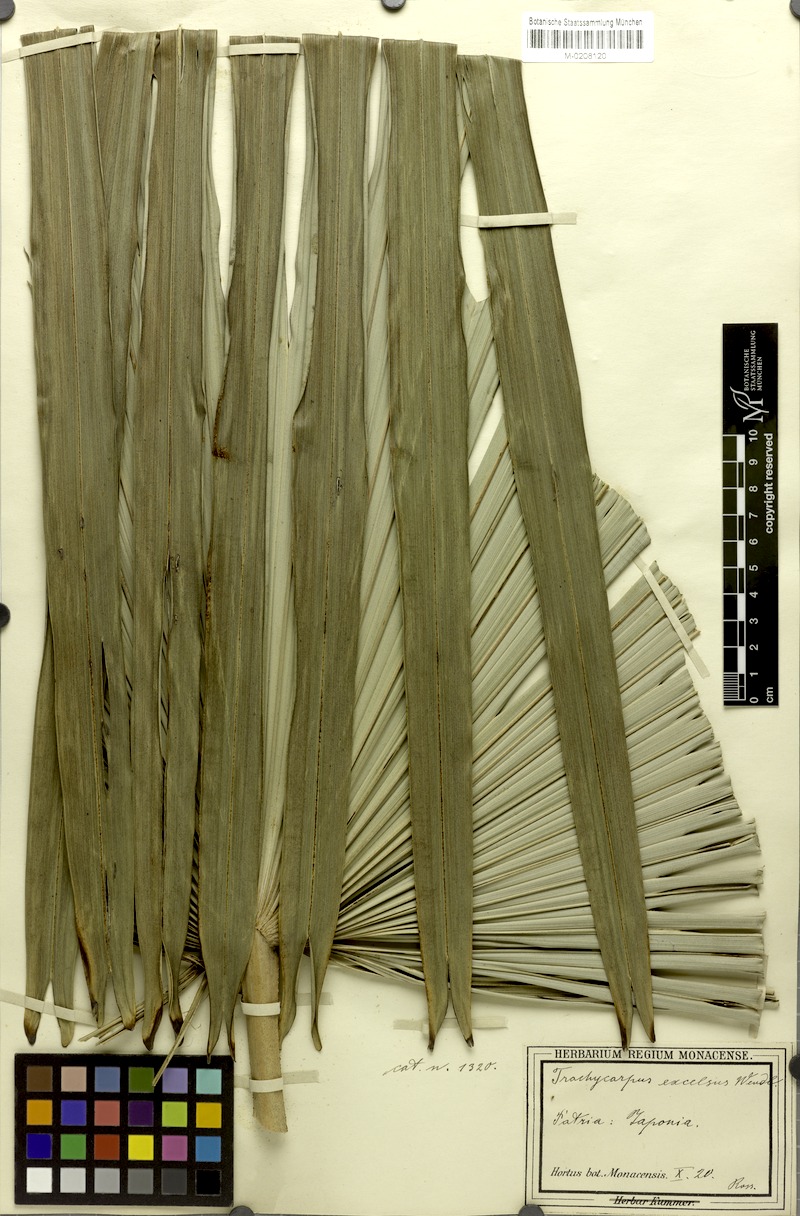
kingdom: Plantae
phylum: Tracheophyta
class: Liliopsida
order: Arecales
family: Arecaceae
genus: Trachycarpus
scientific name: Trachycarpus fortunei
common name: Chusan palm
